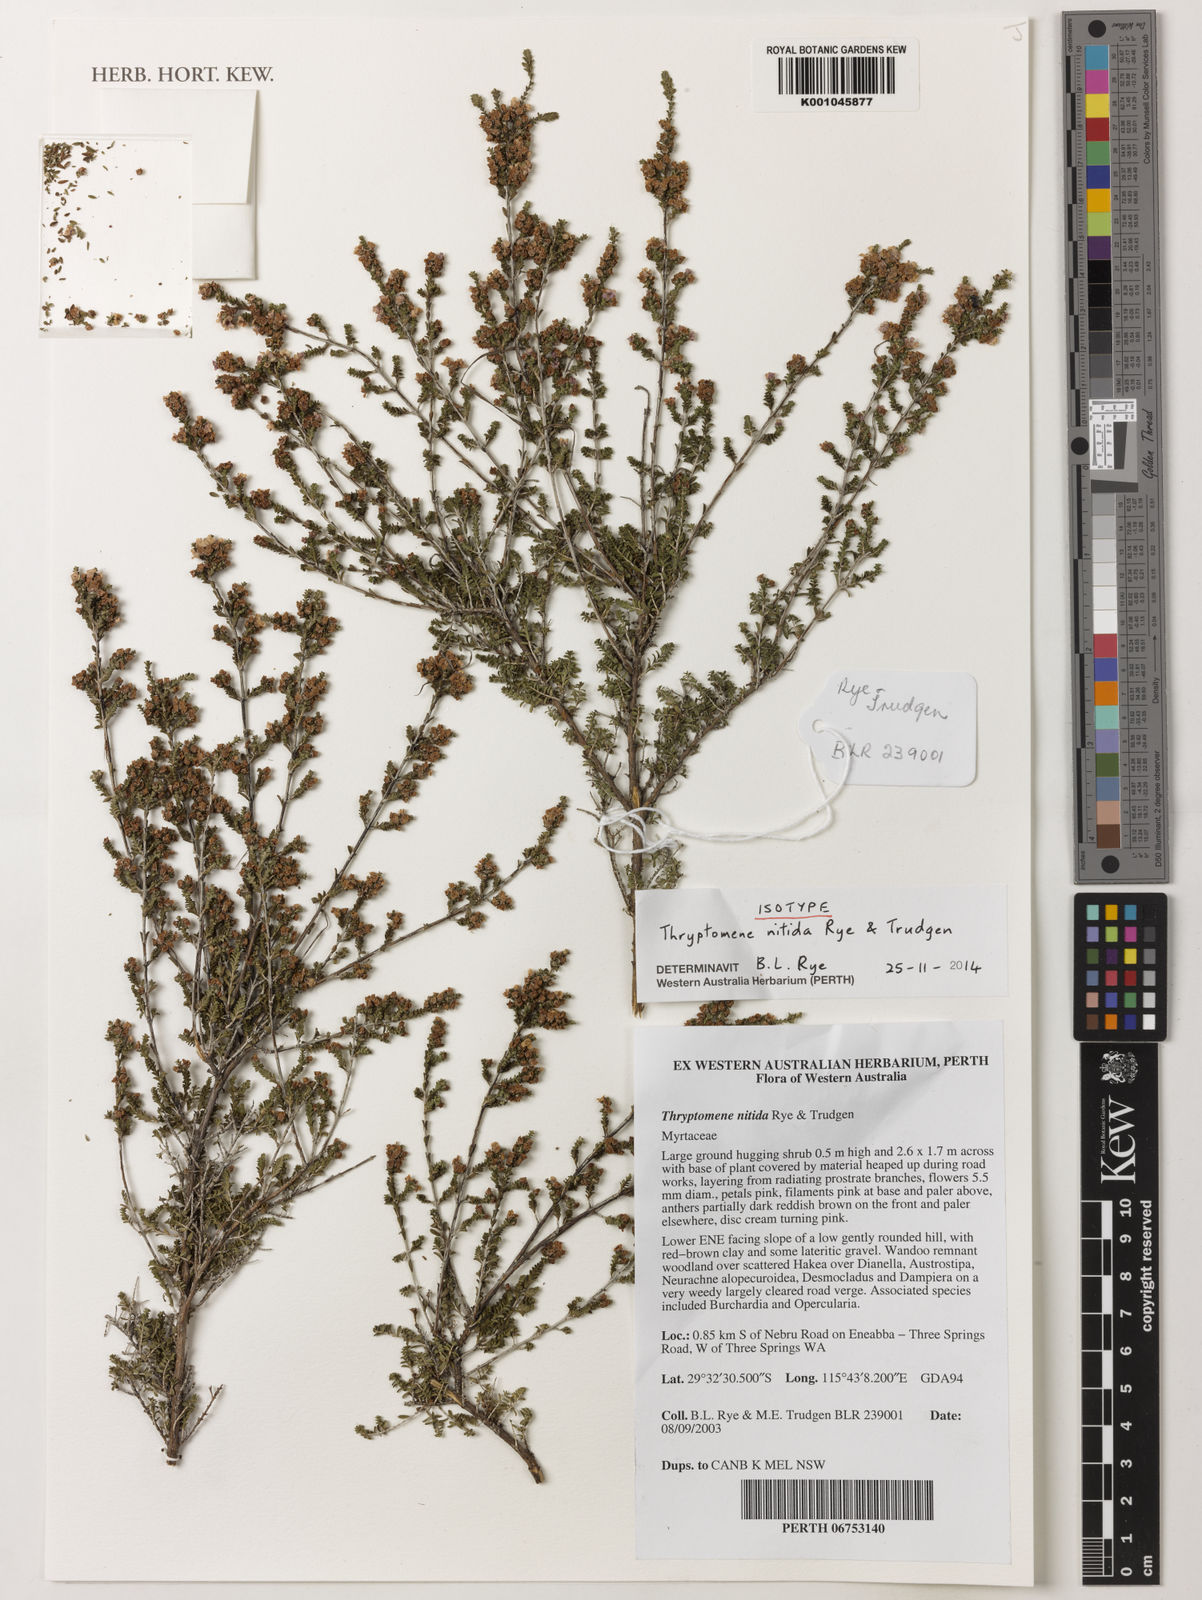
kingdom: Plantae
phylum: Tracheophyta
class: Magnoliopsida
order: Myrtales
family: Myrtaceae
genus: Thryptomene
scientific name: Thryptomene nitida
